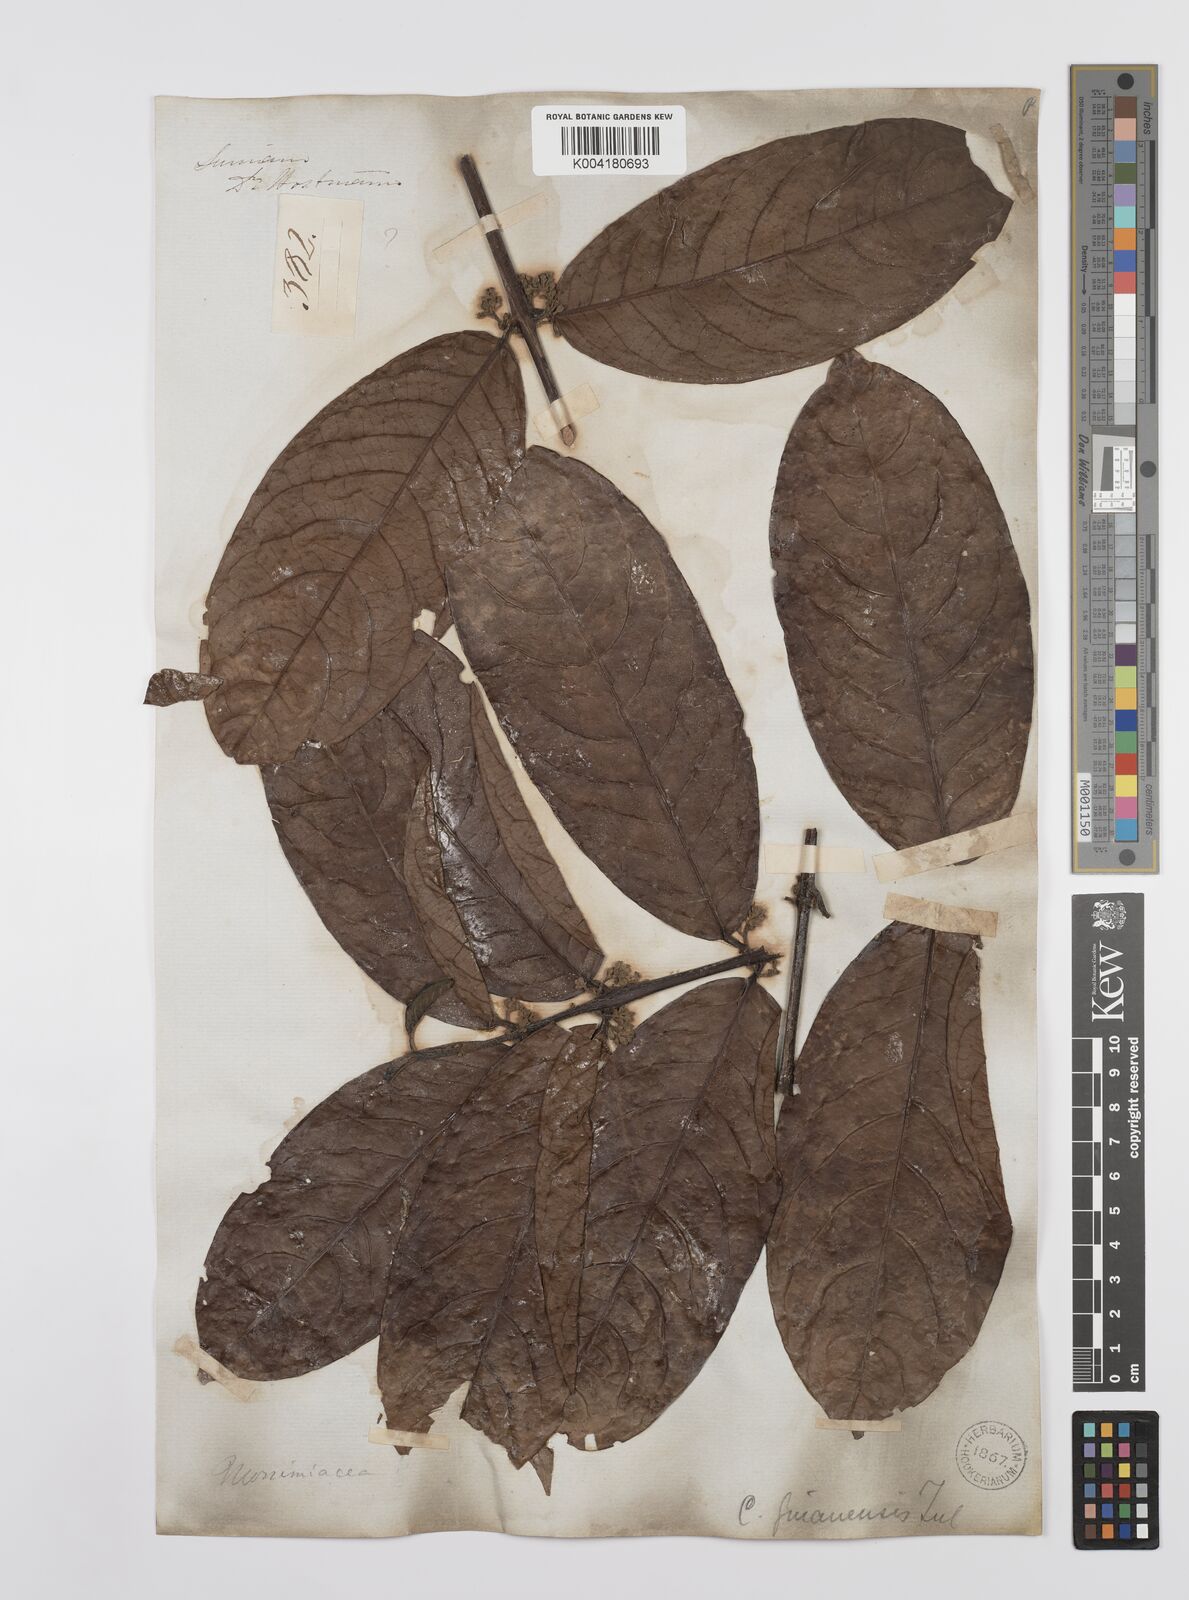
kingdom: Plantae
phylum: Tracheophyta
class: Magnoliopsida
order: Laurales
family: Siparunaceae
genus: Siparuna
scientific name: Siparuna guianensis
